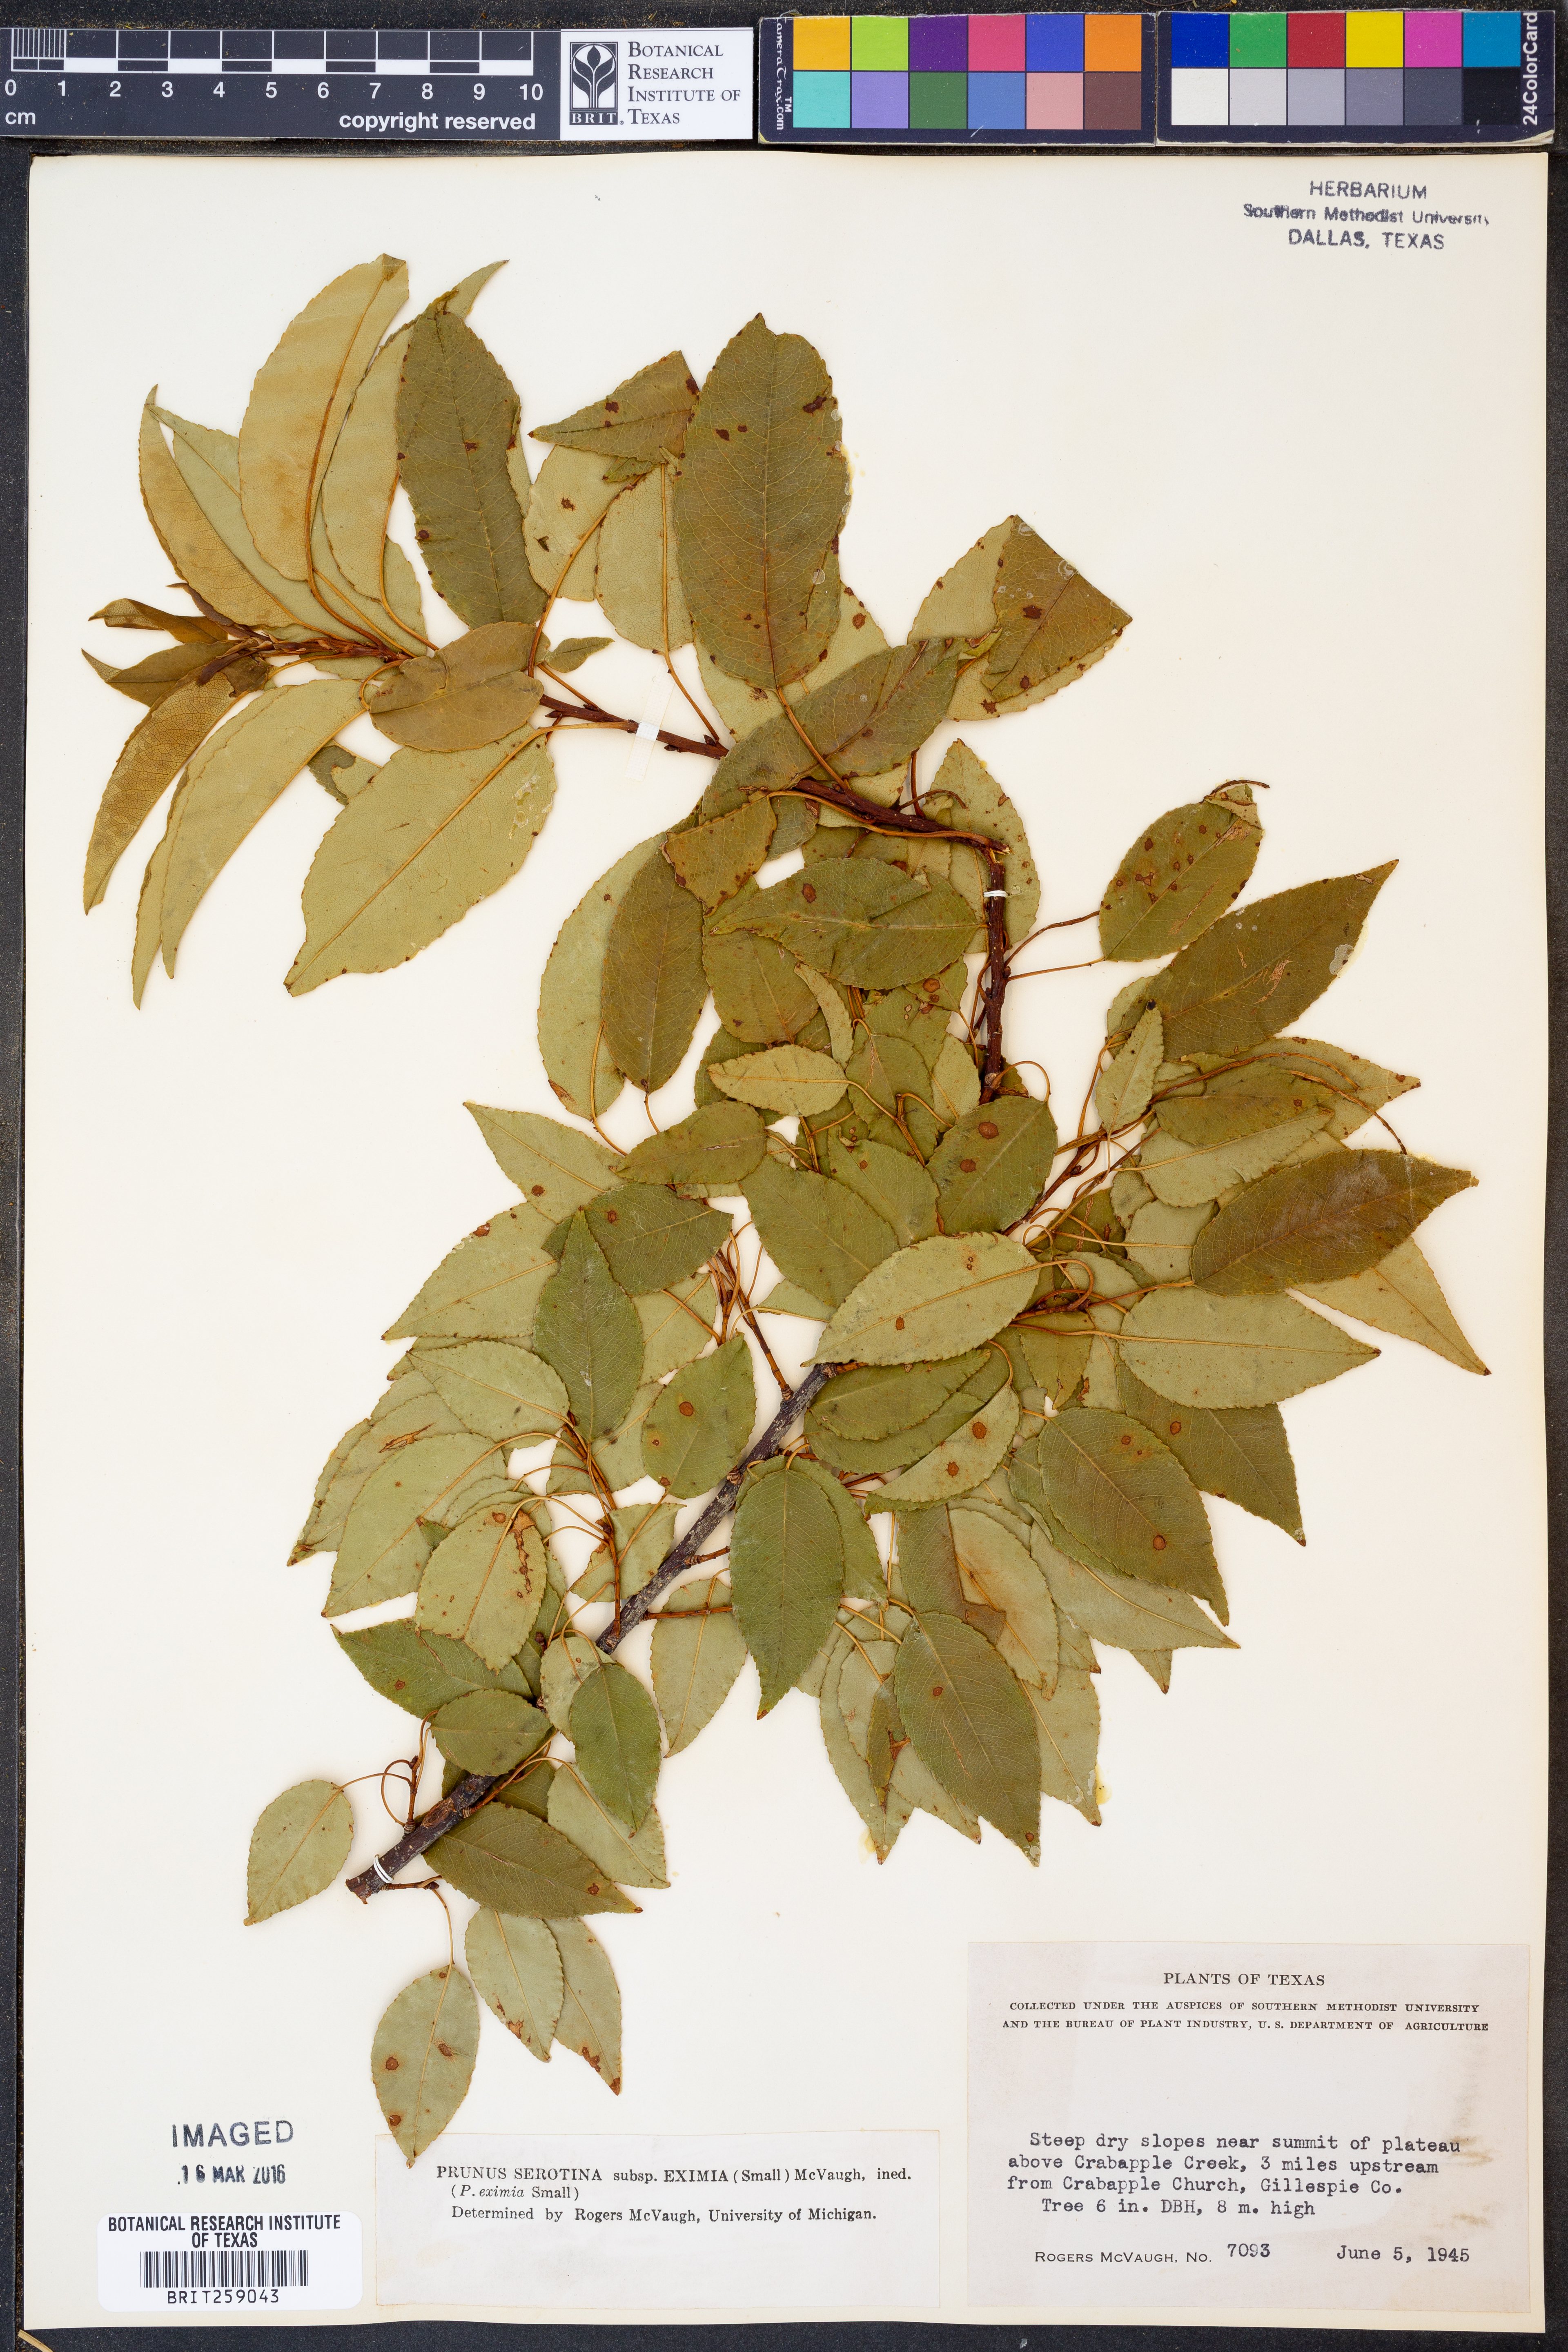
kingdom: Plantae
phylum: Tracheophyta
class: Magnoliopsida
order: Rosales
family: Rosaceae
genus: Prunus
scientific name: Prunus serotina
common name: Black cherry
